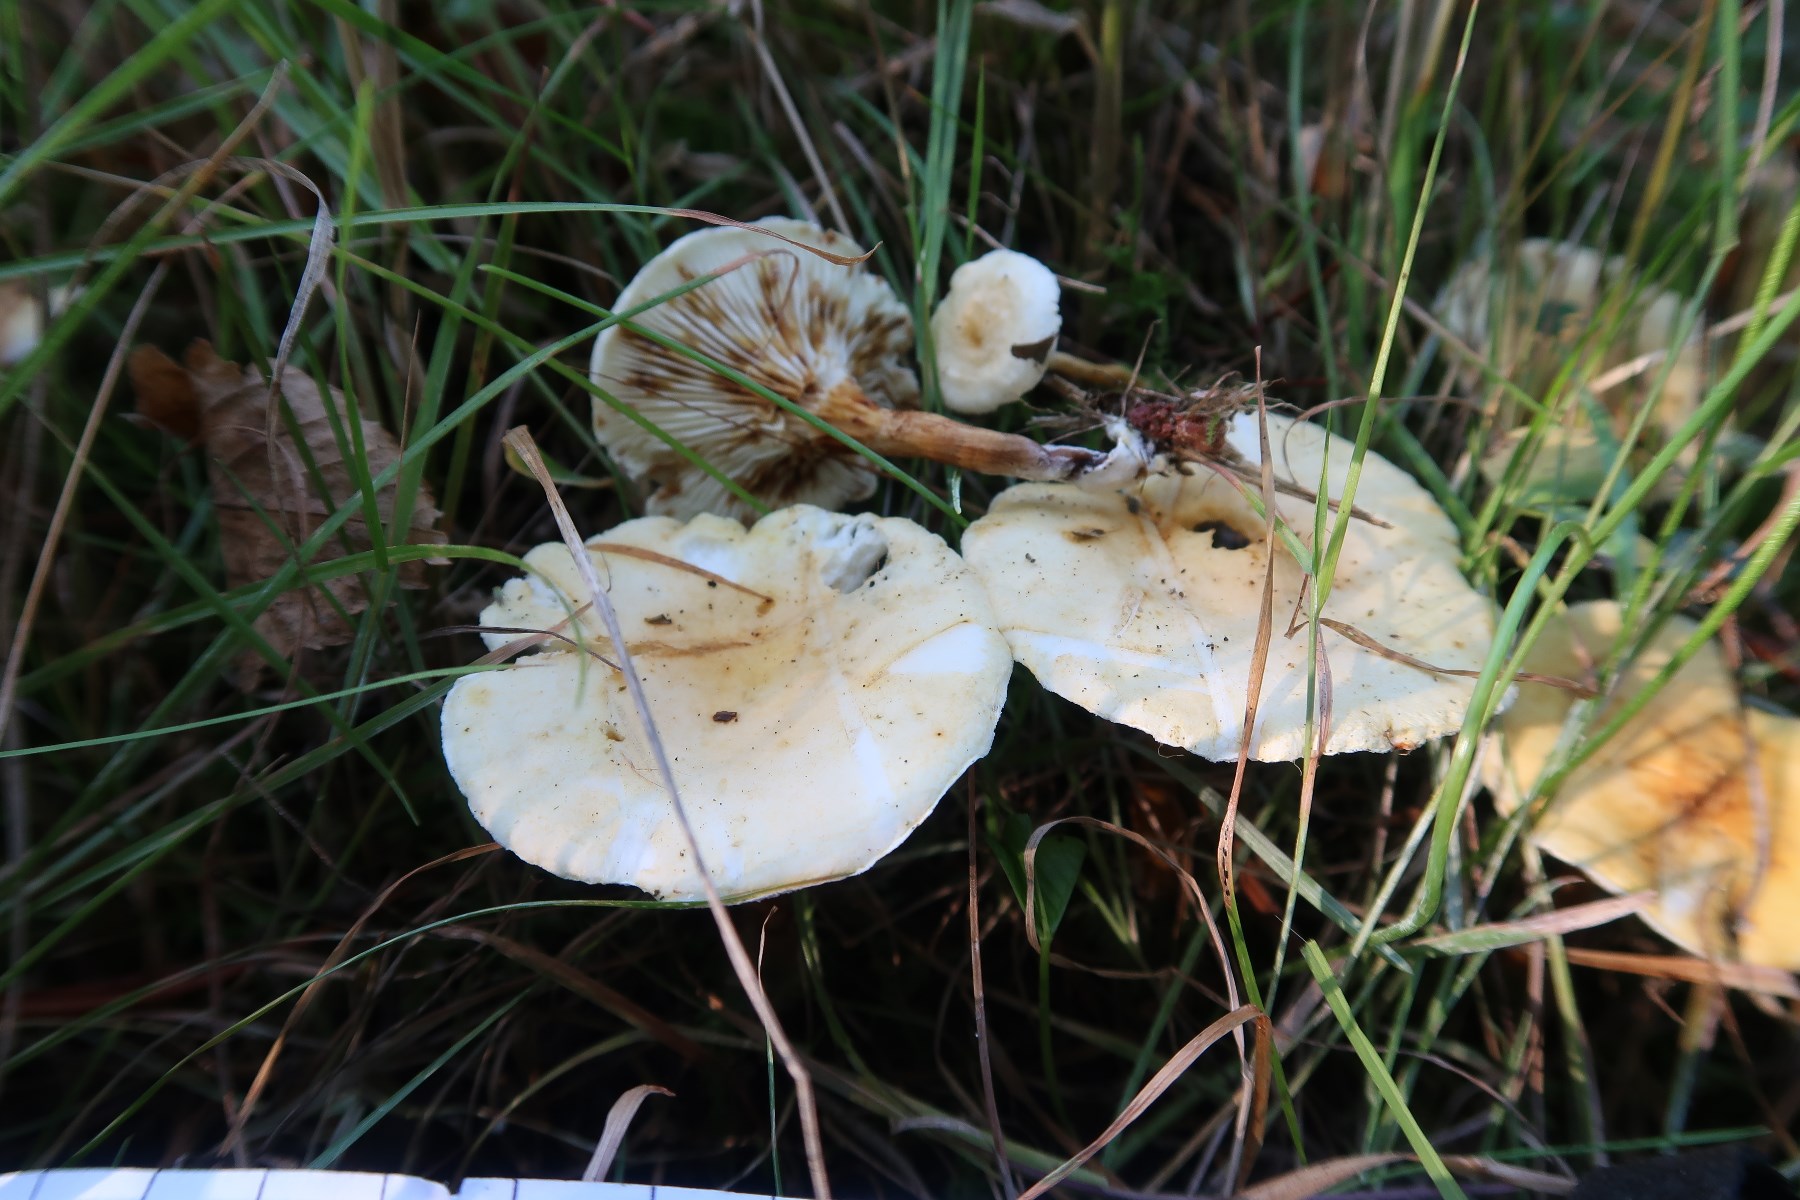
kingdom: Fungi
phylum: Basidiomycota
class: Agaricomycetes
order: Boletales
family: Hygrophoropsidaceae
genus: Hygrophoropsis
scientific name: Hygrophoropsis pallida
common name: bleg orangekantarel
